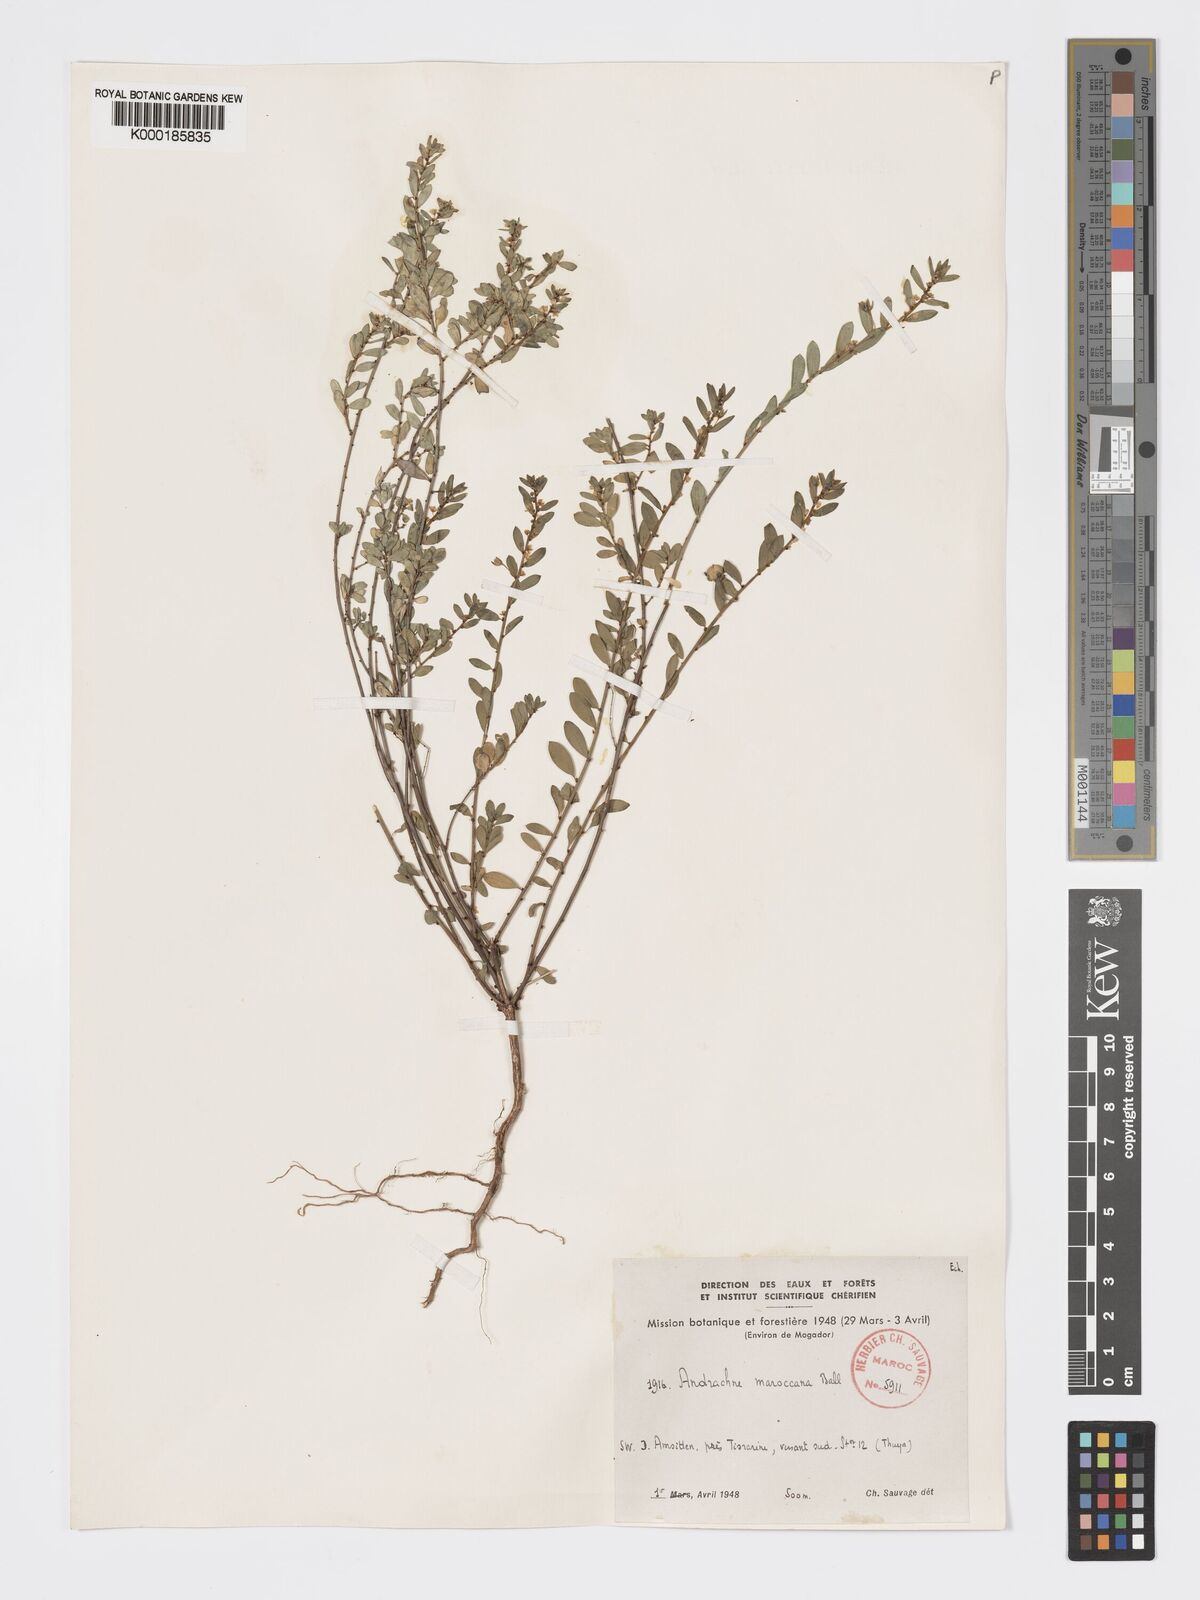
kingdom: Plantae
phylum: Tracheophyta
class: Magnoliopsida
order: Malpighiales
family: Phyllanthaceae
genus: Andrachne
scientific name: Andrachne maroccana
